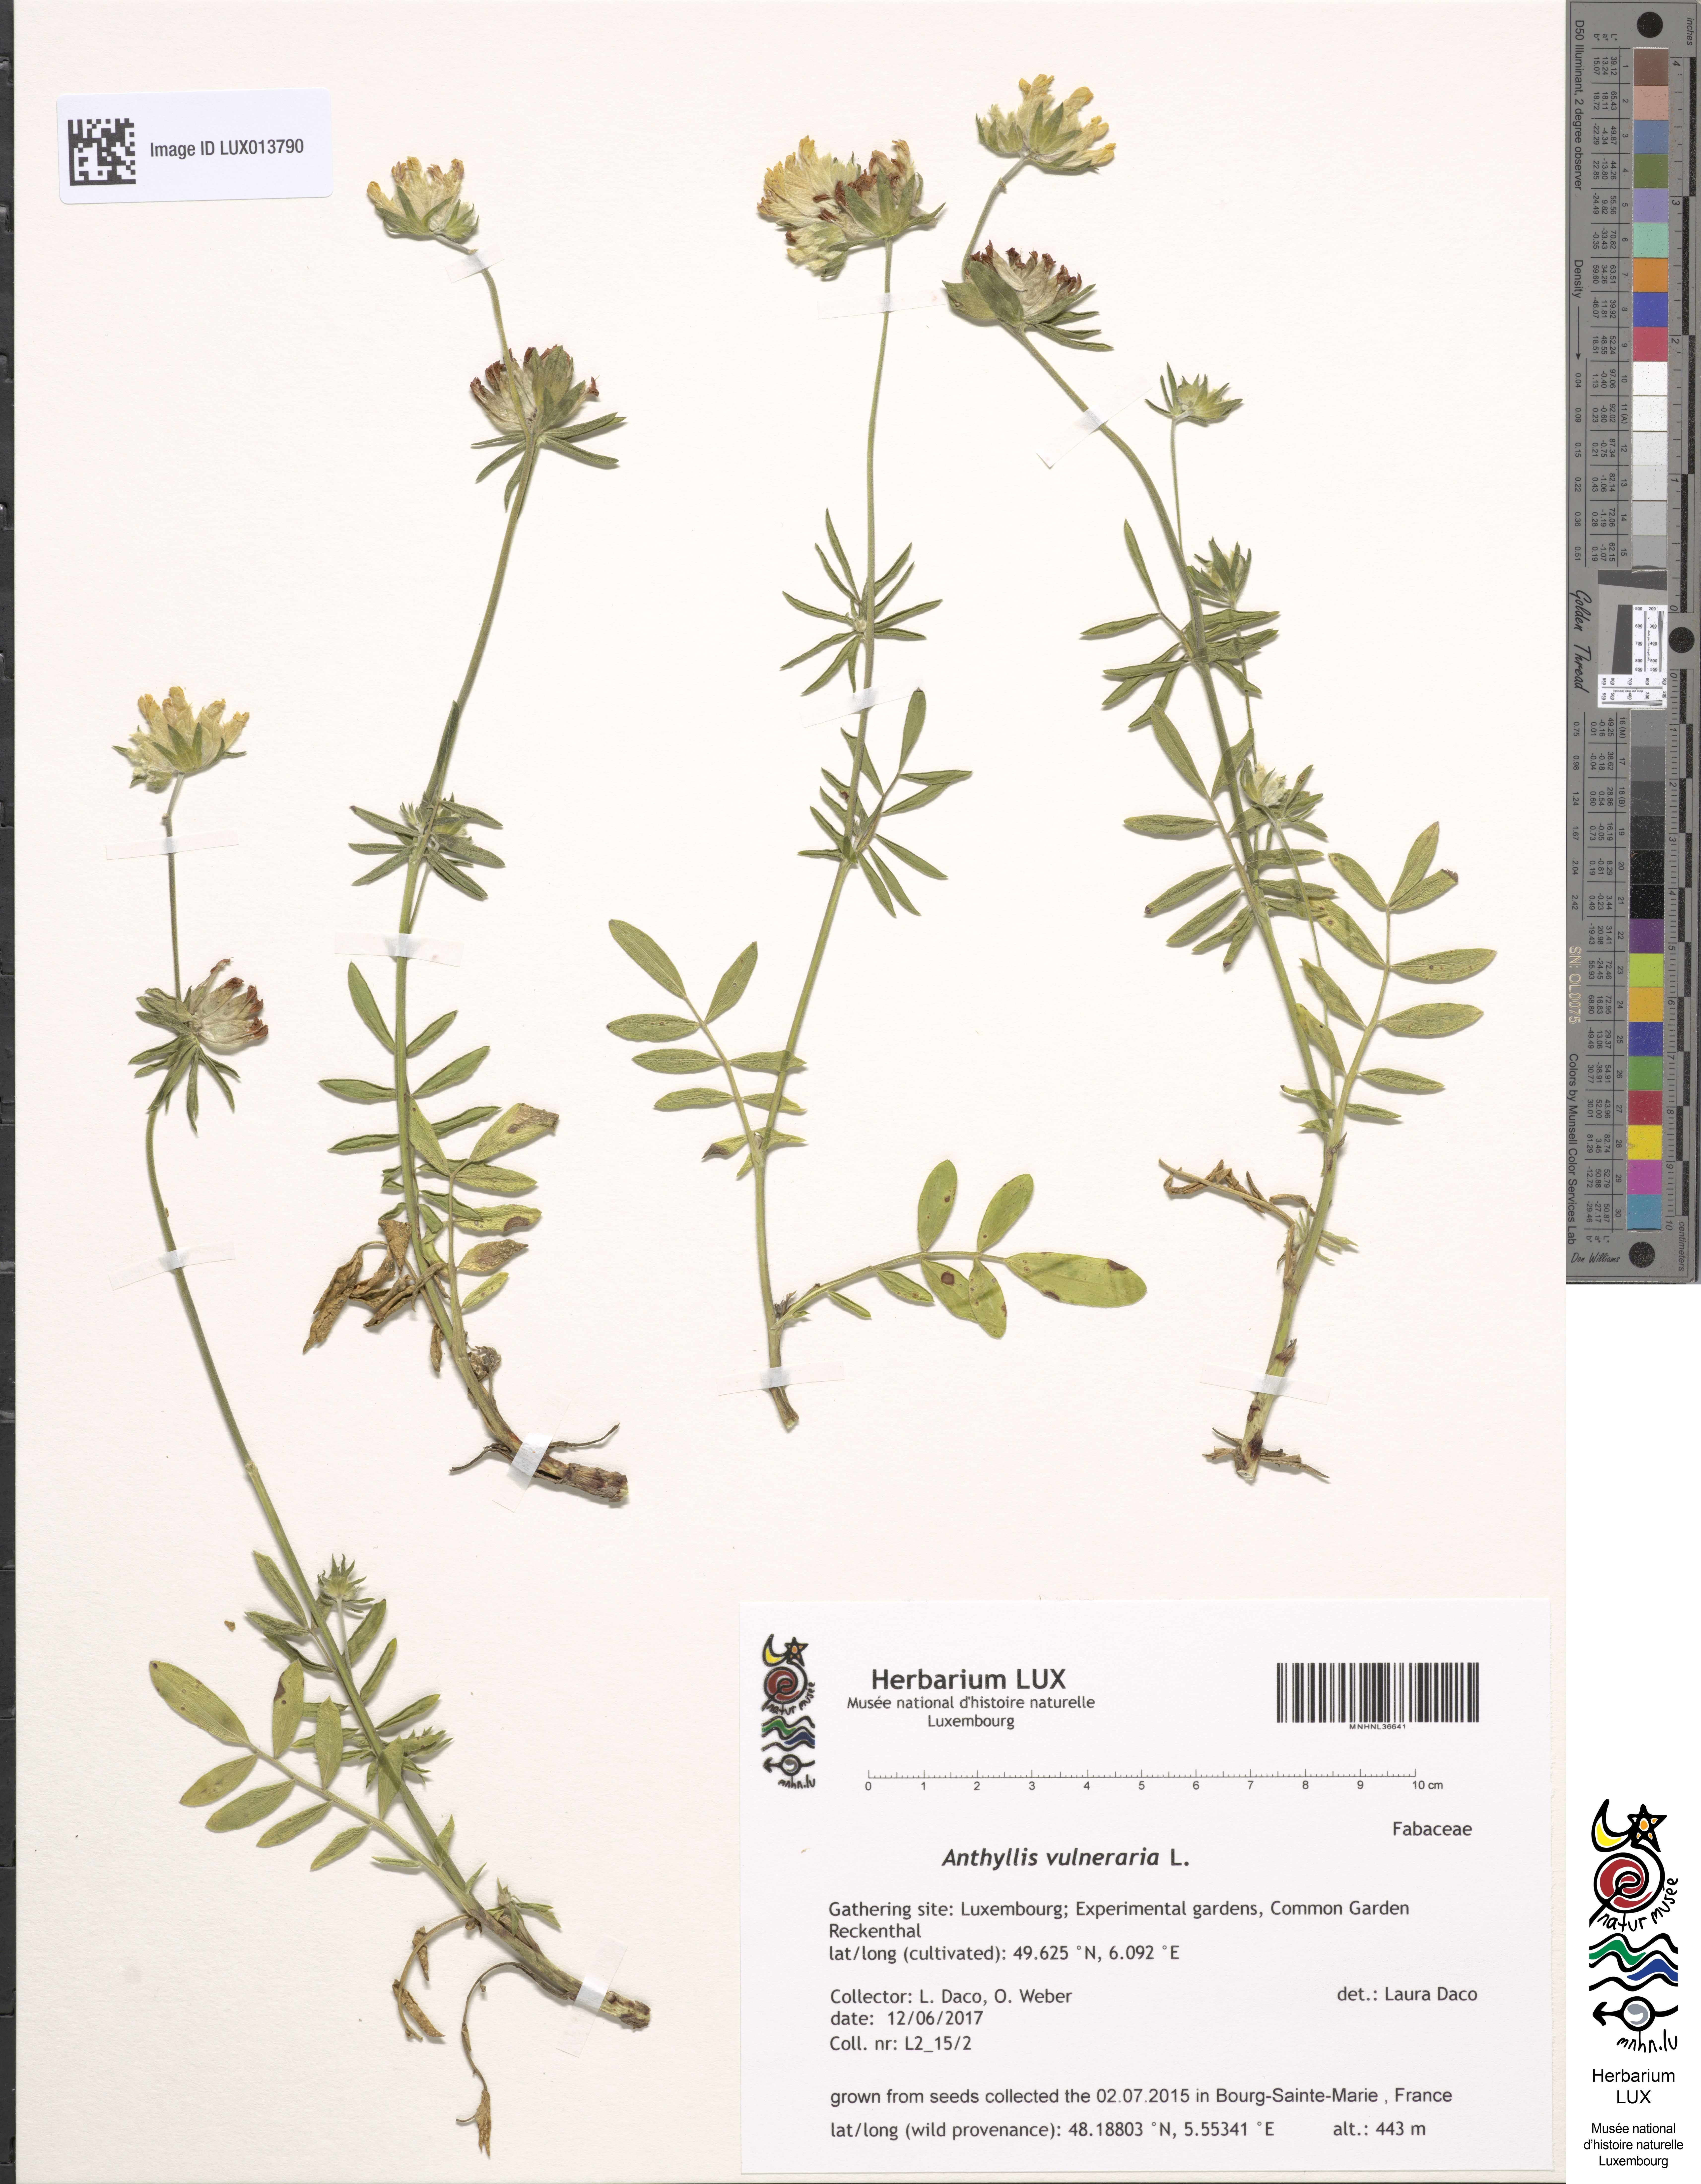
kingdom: Plantae
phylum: Tracheophyta
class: Magnoliopsida
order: Fabales
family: Fabaceae
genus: Anthyllis
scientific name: Anthyllis vulneraria
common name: Kidney vetch
